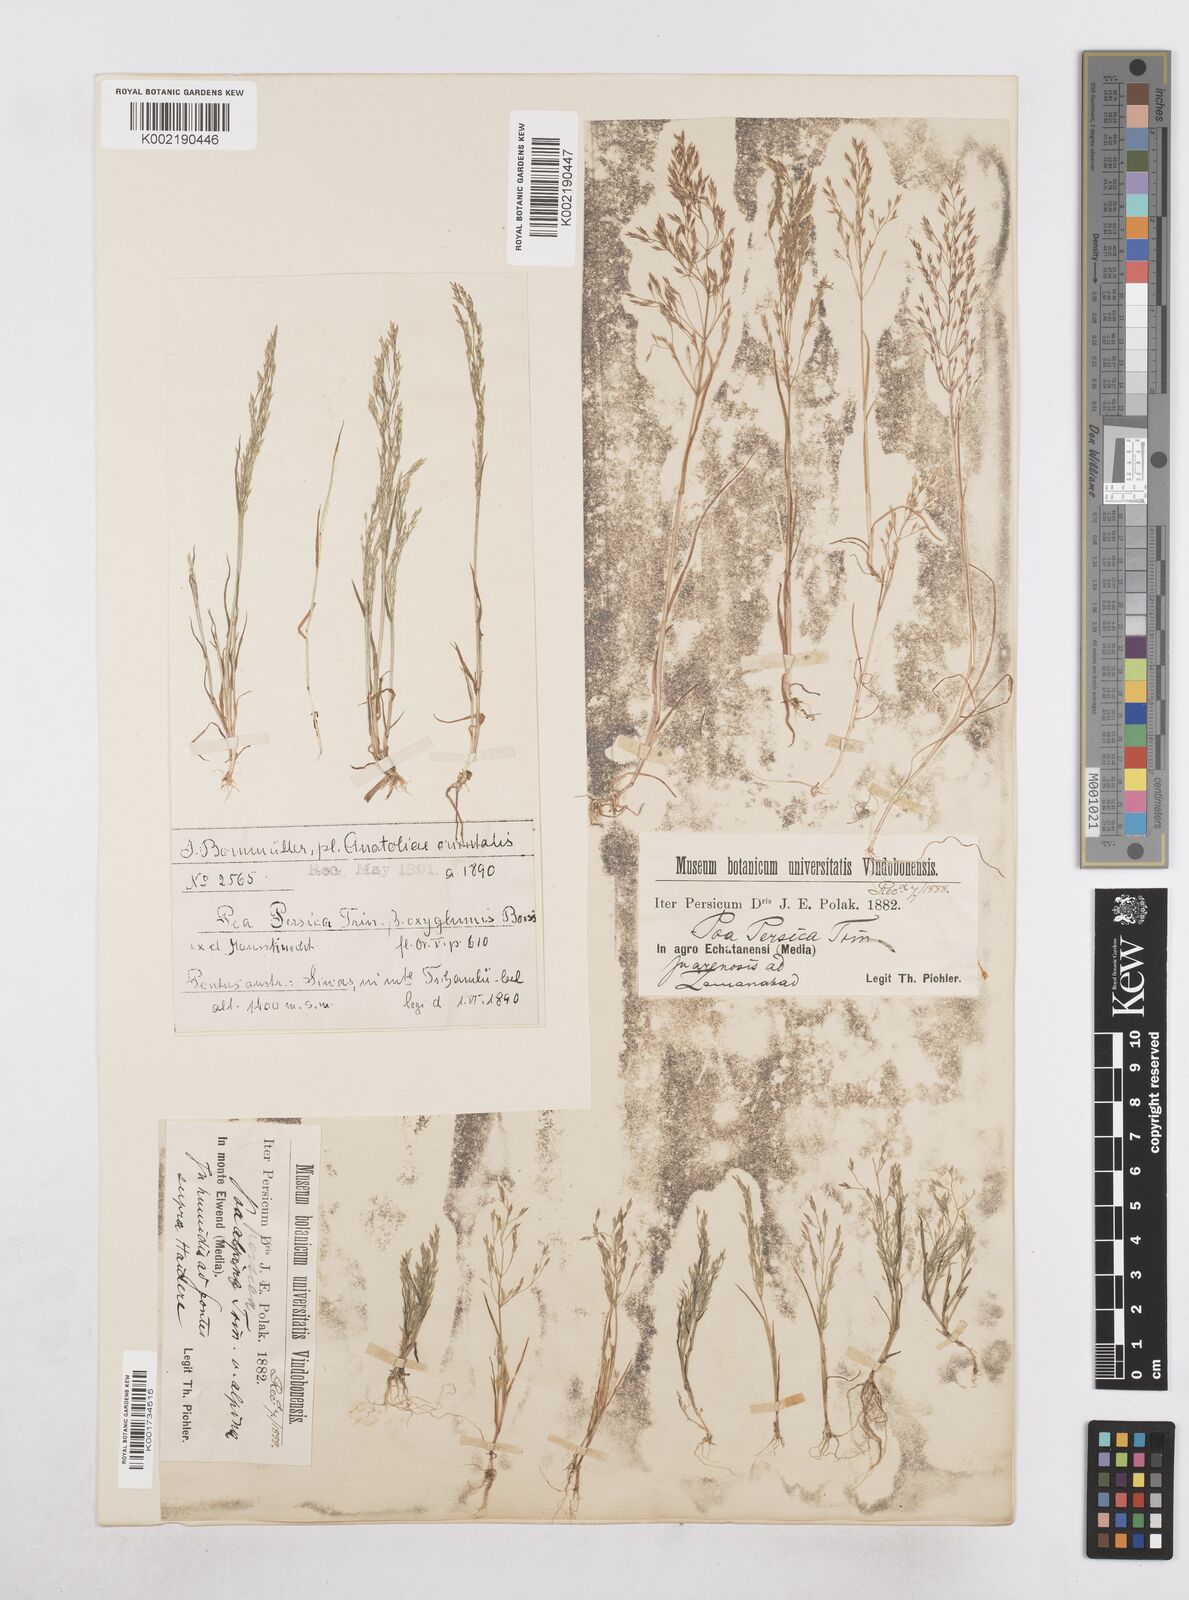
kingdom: Plantae
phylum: Tracheophyta
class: Liliopsida
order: Poales
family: Poaceae
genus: Poa
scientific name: Poa diaphora
